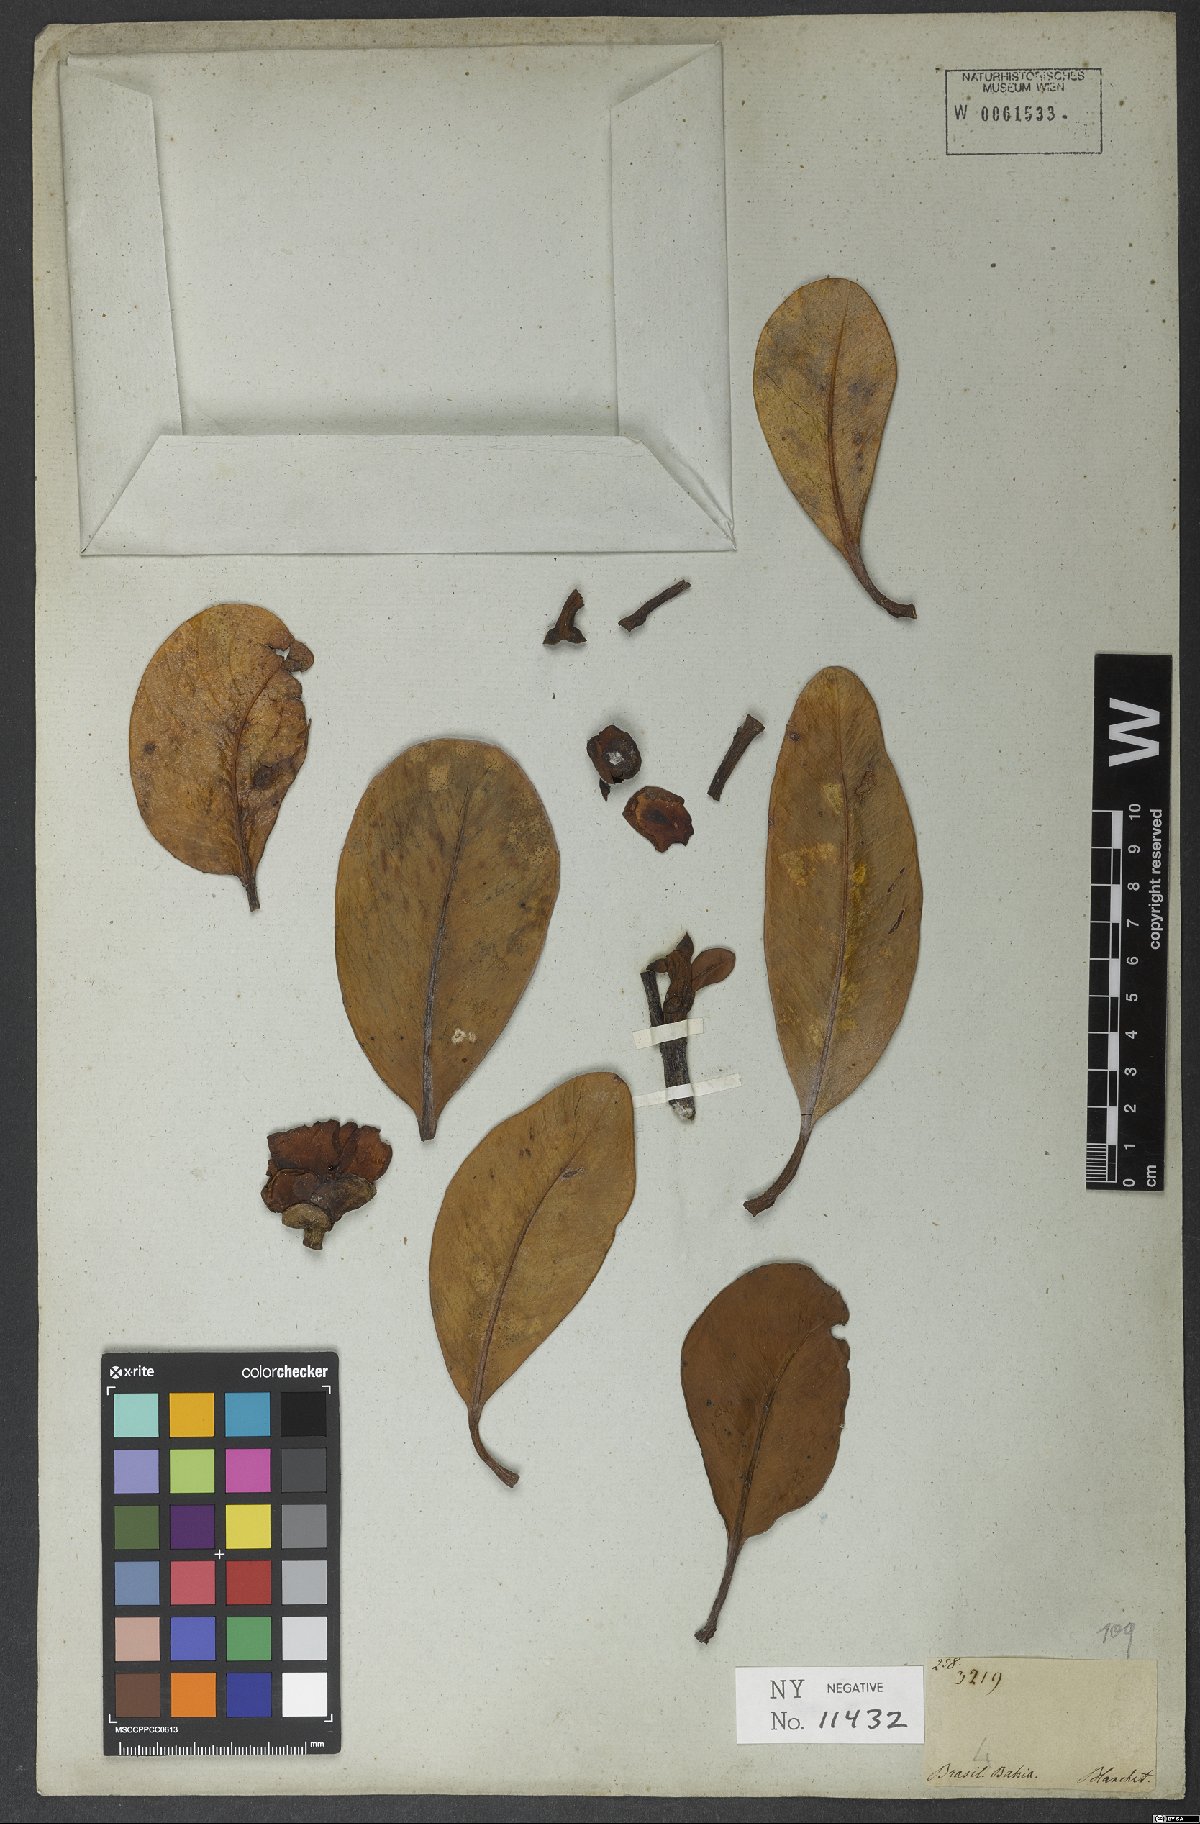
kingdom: Plantae
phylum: Tracheophyta
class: Magnoliopsida
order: Malpighiales
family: Clusiaceae
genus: Clusia
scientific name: Clusia nemorosa
